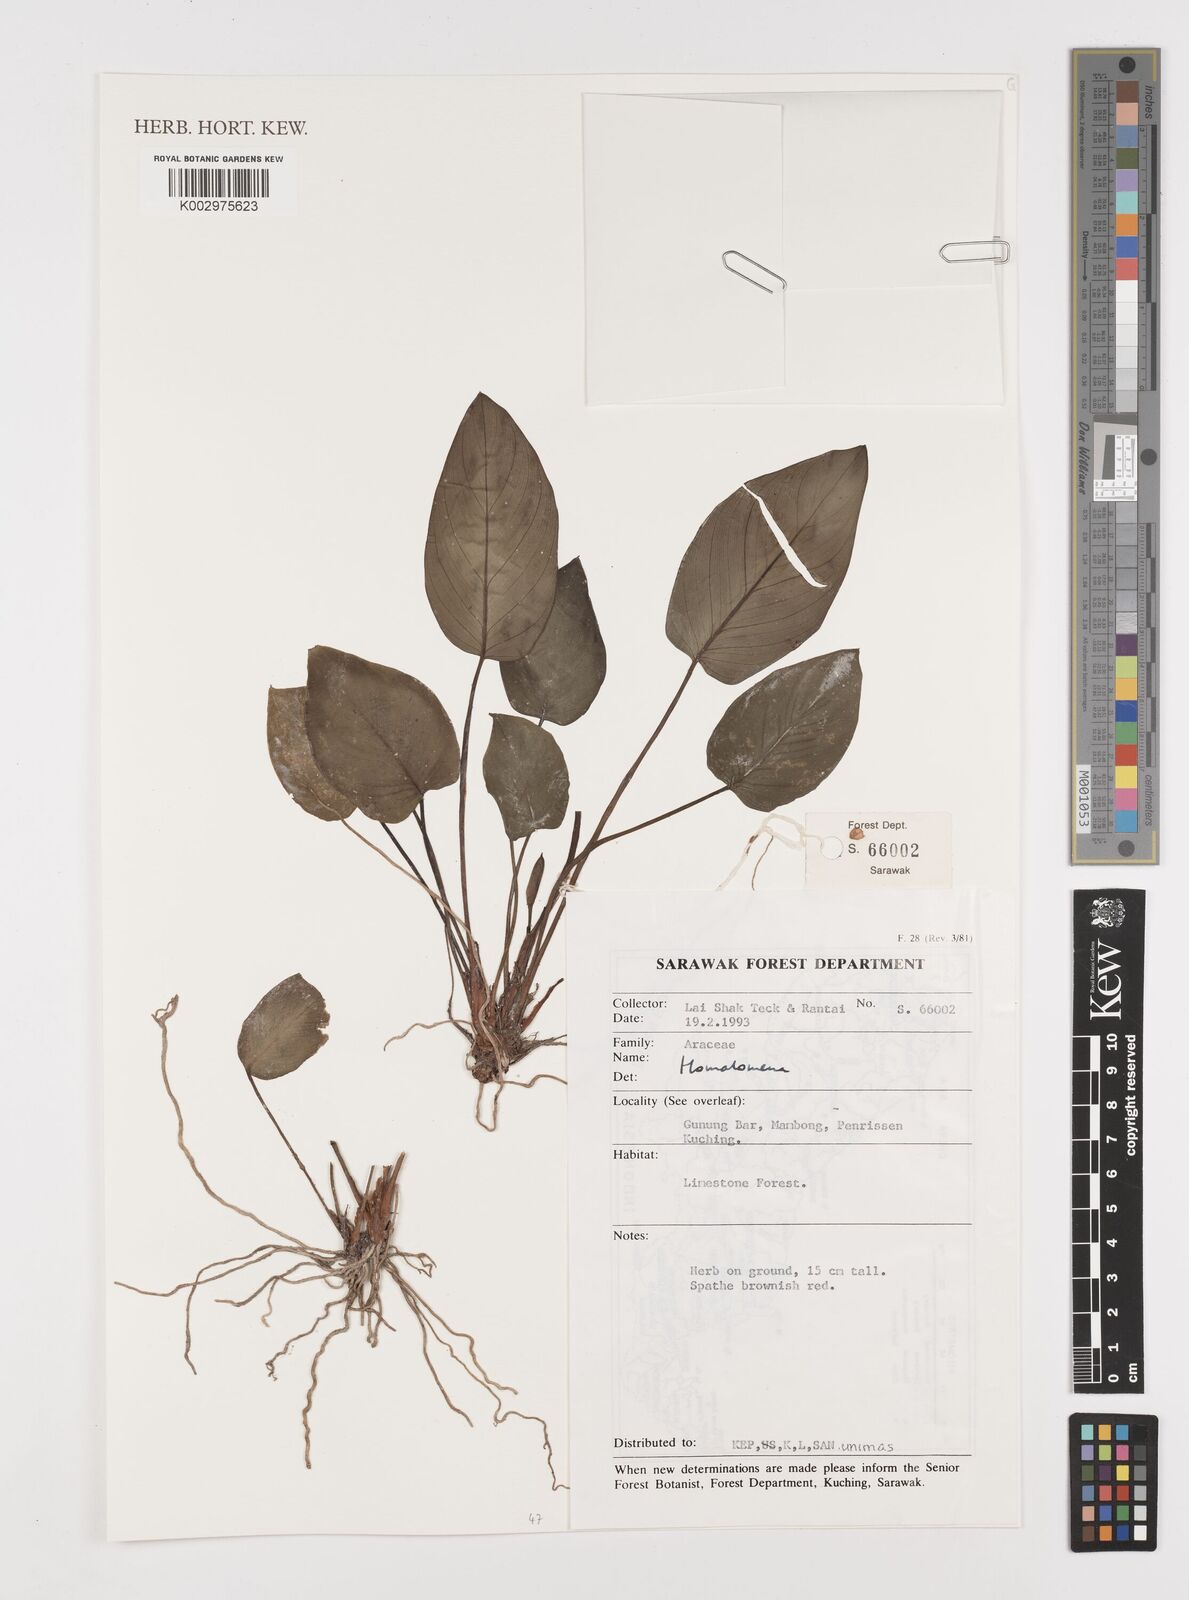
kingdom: Plantae
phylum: Tracheophyta
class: Liliopsida
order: Alismatales
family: Araceae
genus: Homalomena
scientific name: Homalomena
